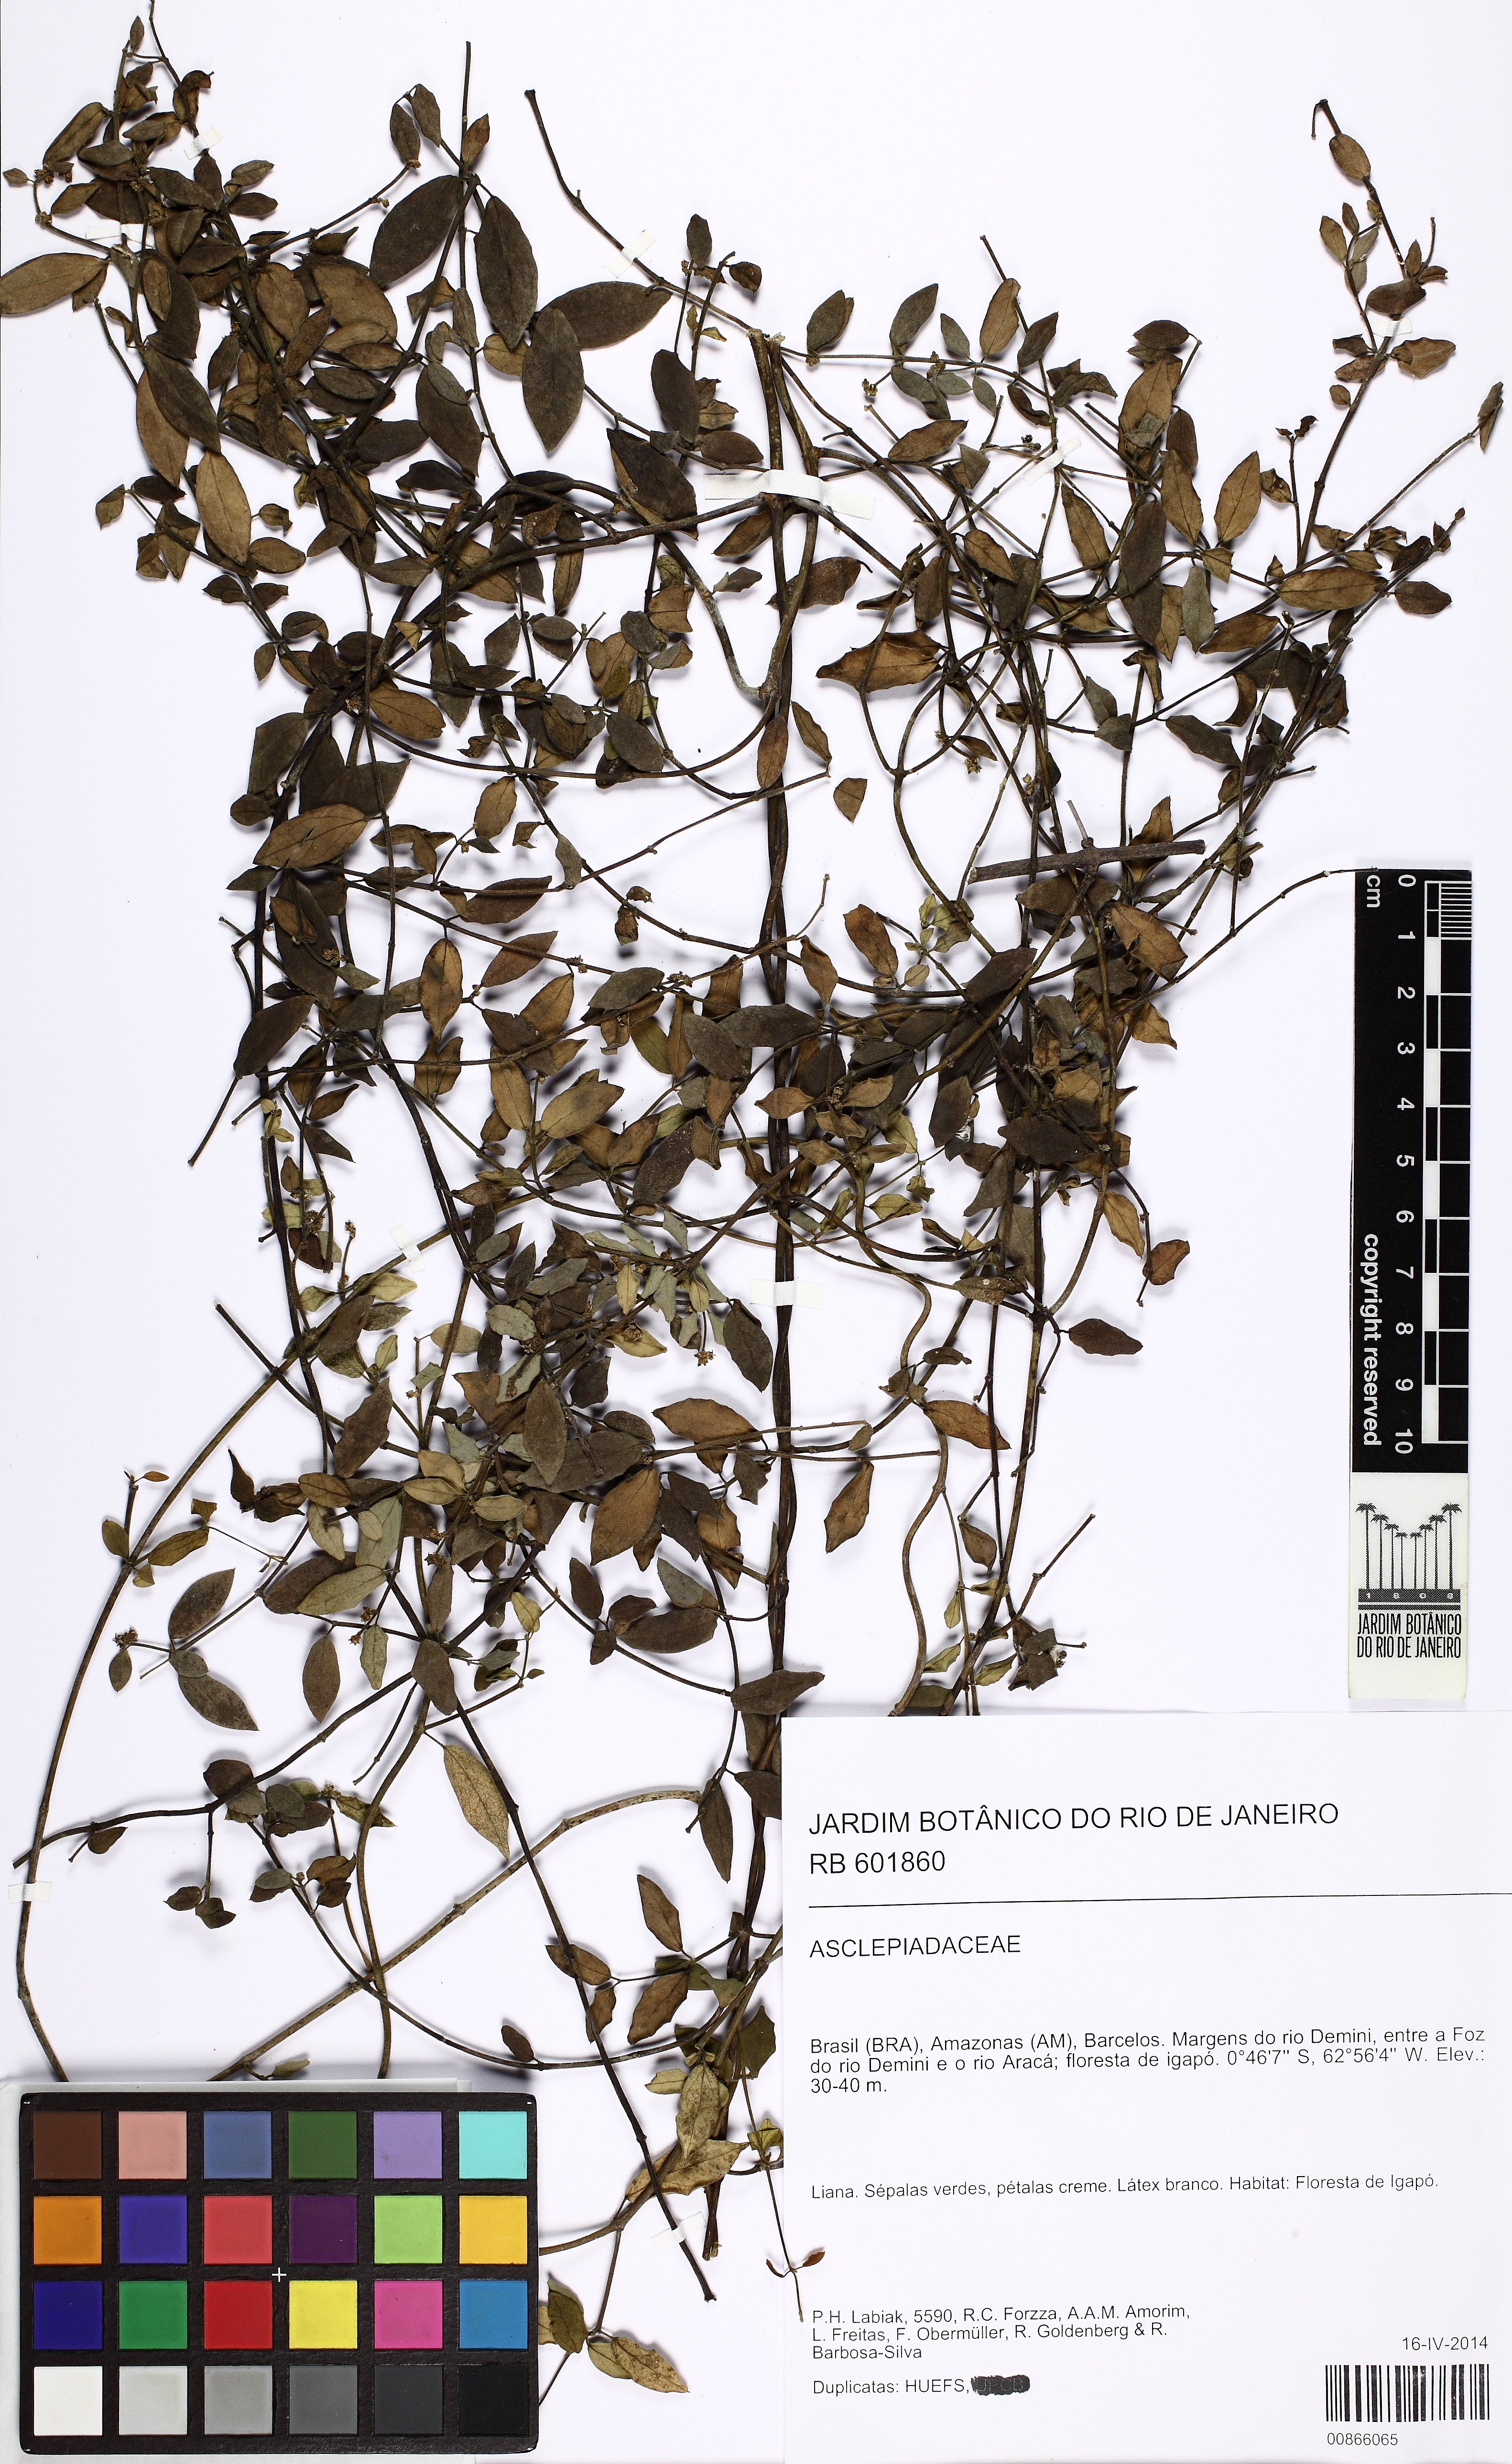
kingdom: Plantae
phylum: Tracheophyta
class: Magnoliopsida
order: Gentianales
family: Apocynaceae
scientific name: Apocynaceae
